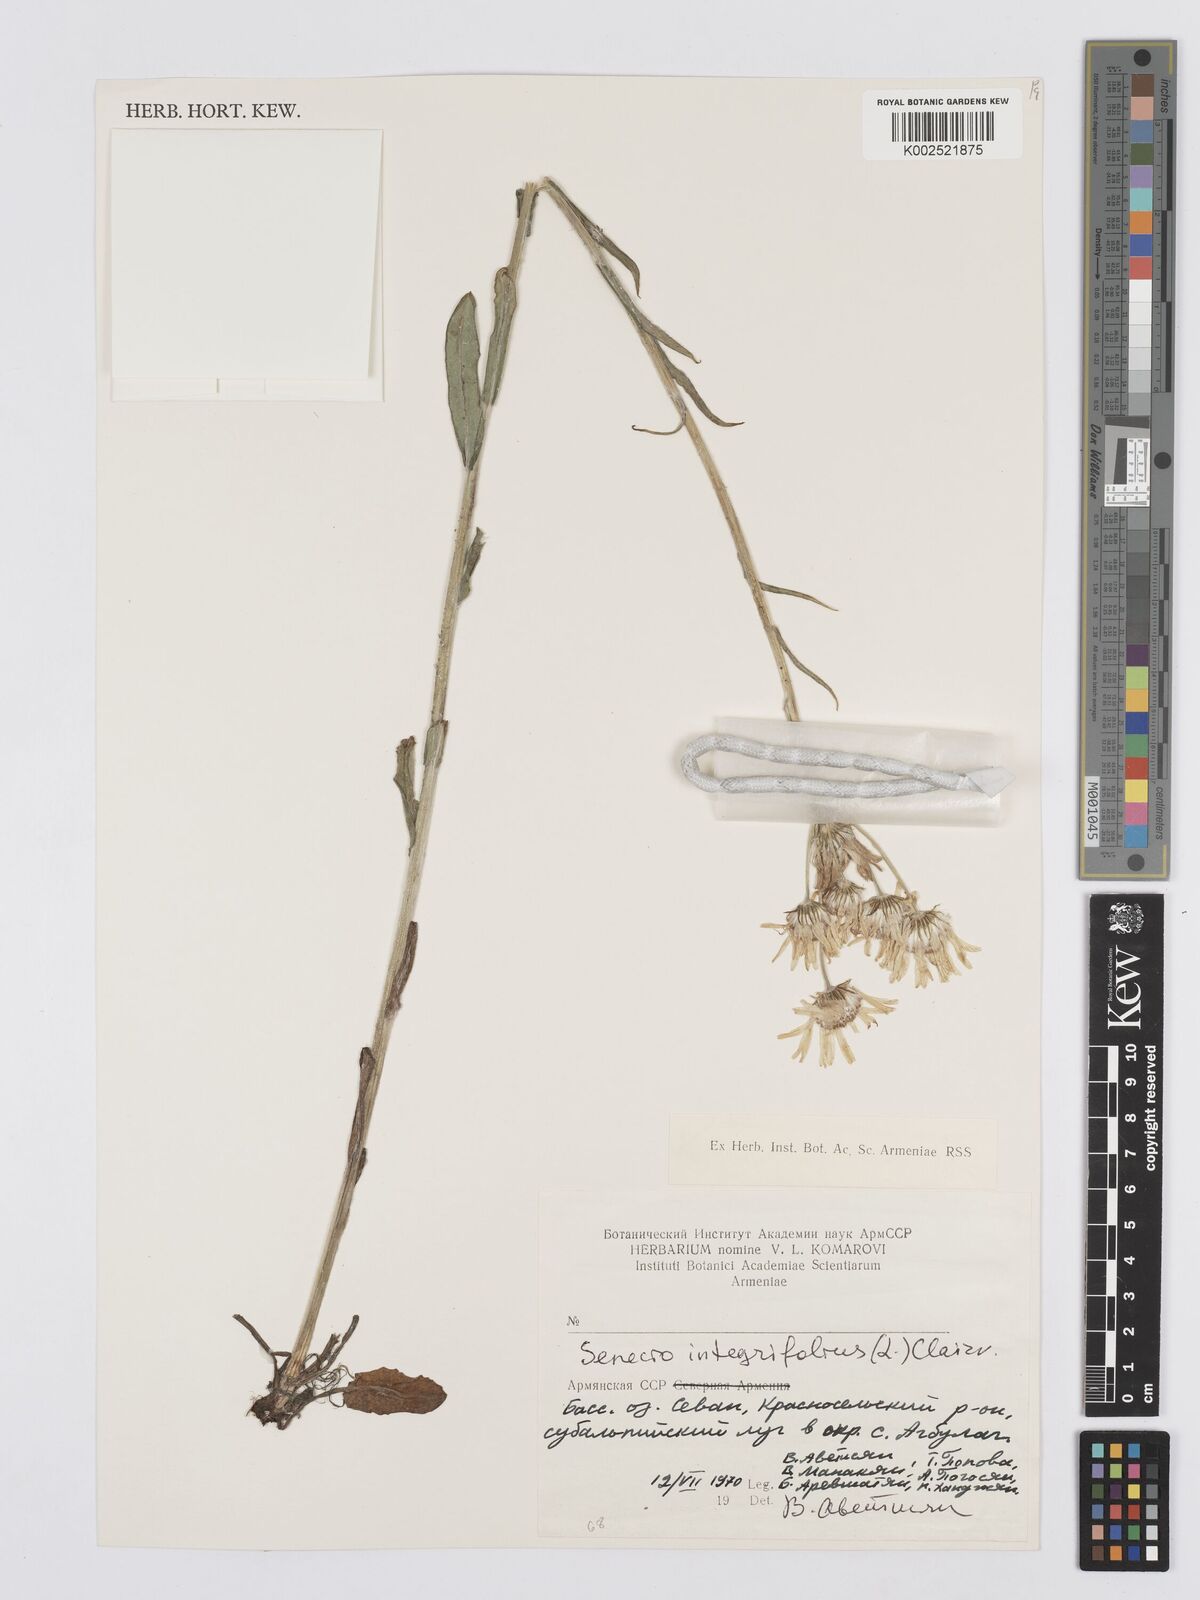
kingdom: Plantae
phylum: Tracheophyta
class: Magnoliopsida
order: Asterales
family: Asteraceae
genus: Tephroseris
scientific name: Tephroseris cladobotrys
